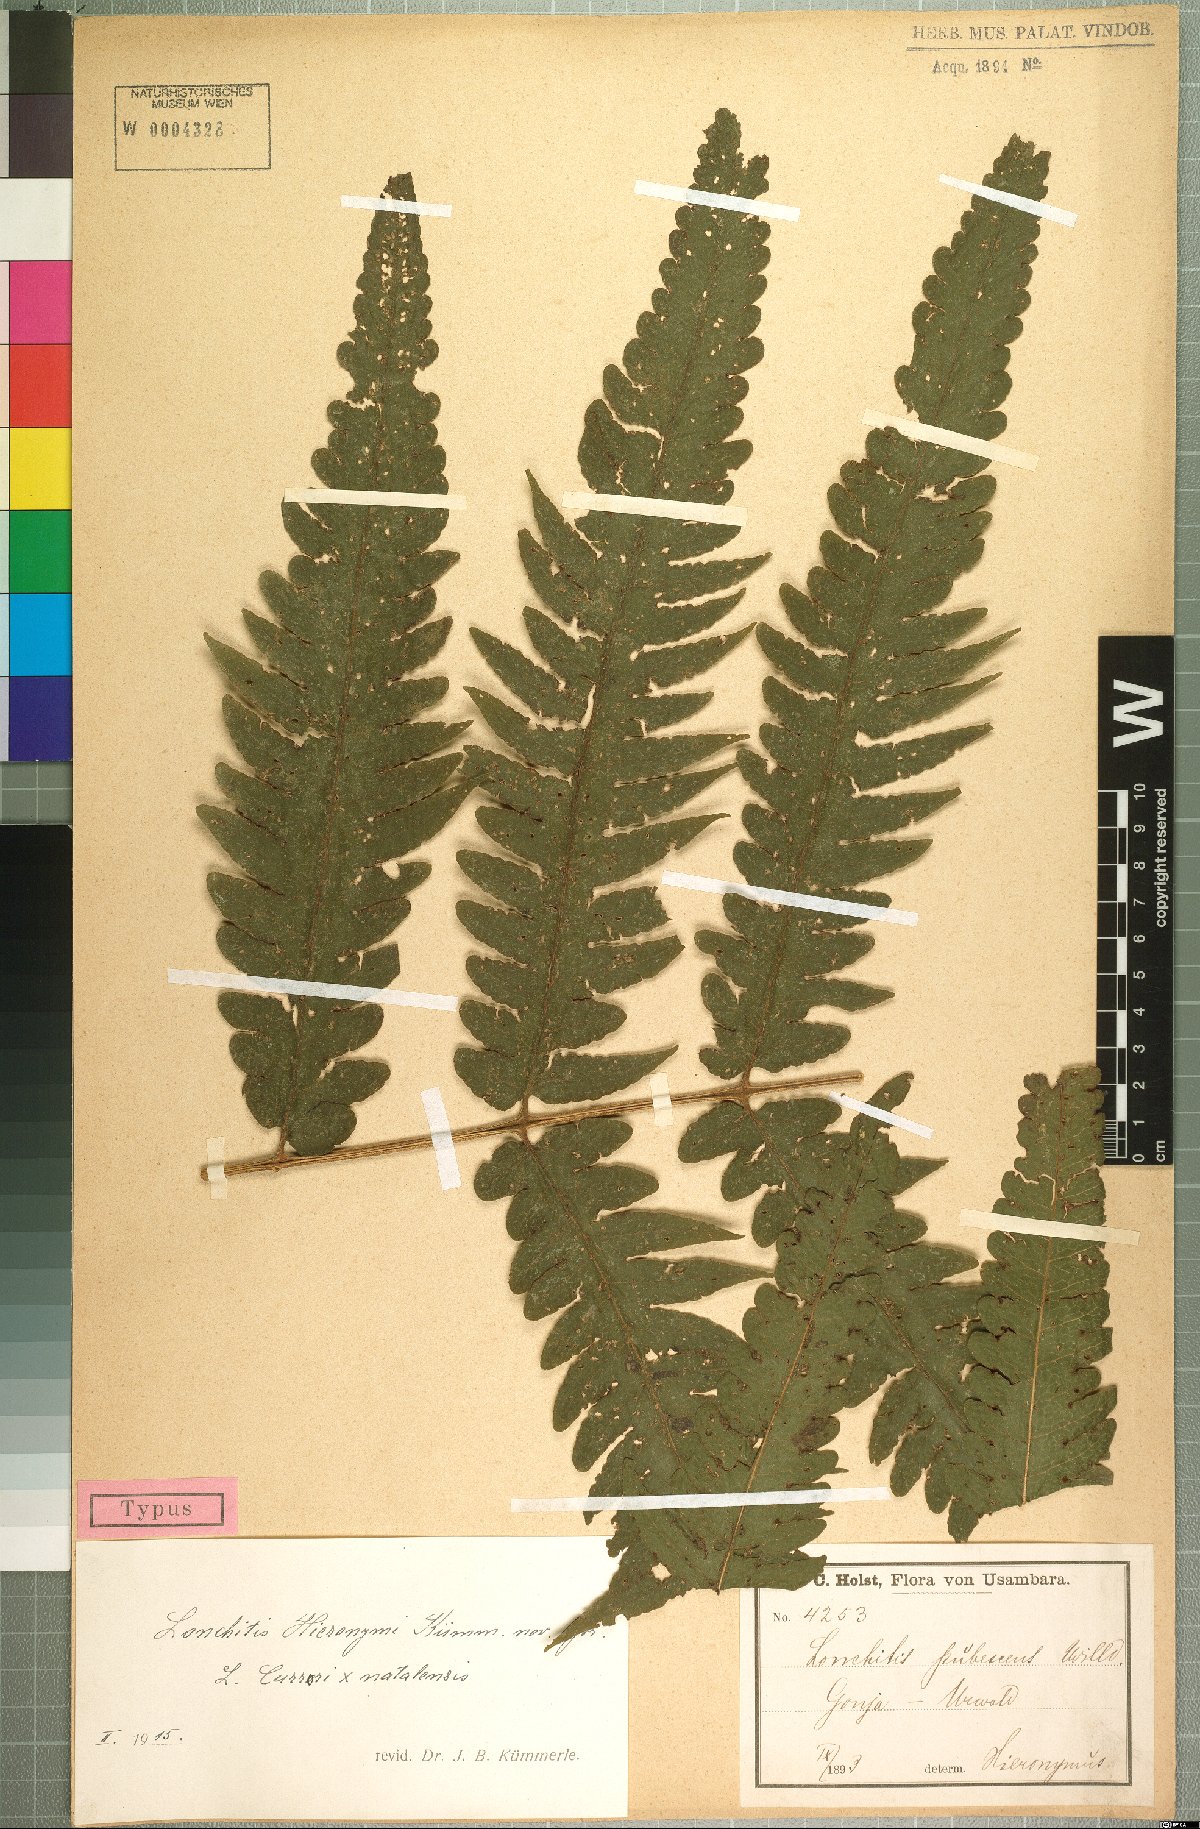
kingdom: Plantae
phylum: Tracheophyta
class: Polypodiopsida
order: Polypodiales
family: Dennstaedtiaceae
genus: Blotiella
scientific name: Blotiella hieronymi
